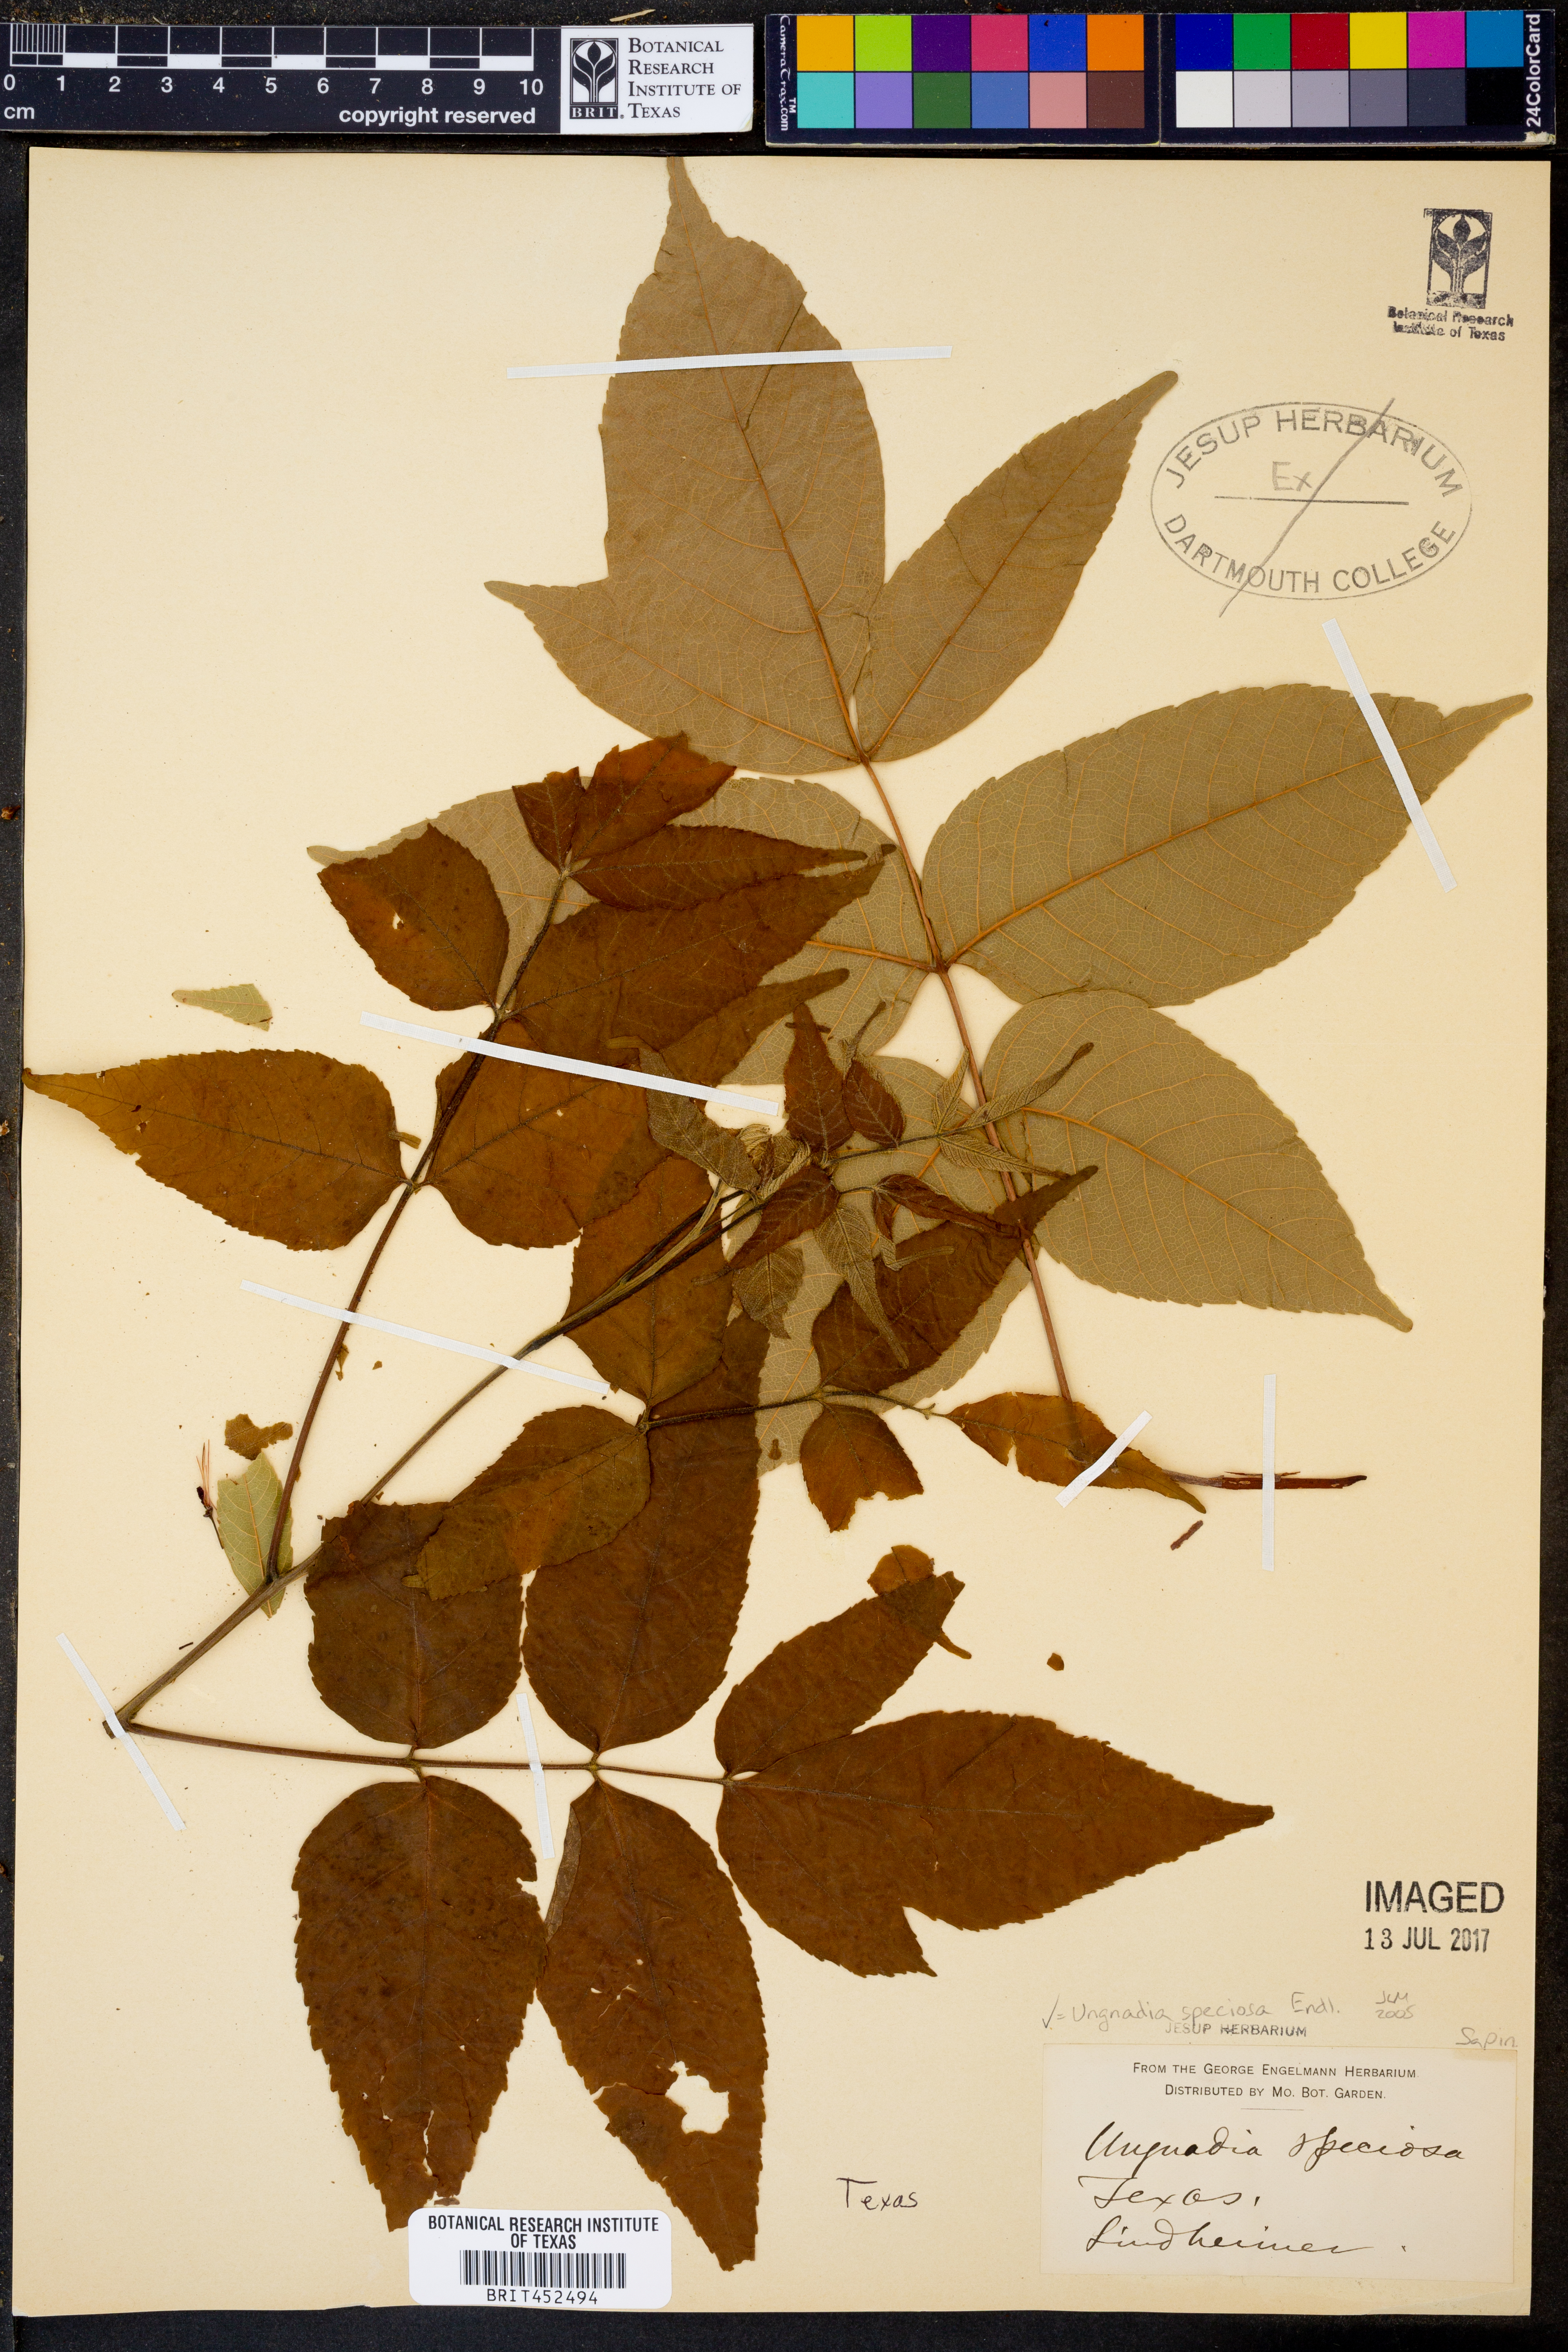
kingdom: Plantae
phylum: Tracheophyta
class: Magnoliopsida
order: Sapindales
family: Sapindaceae
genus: Ungnadia
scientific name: Ungnadia speciosa
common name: Texas-buckeye
